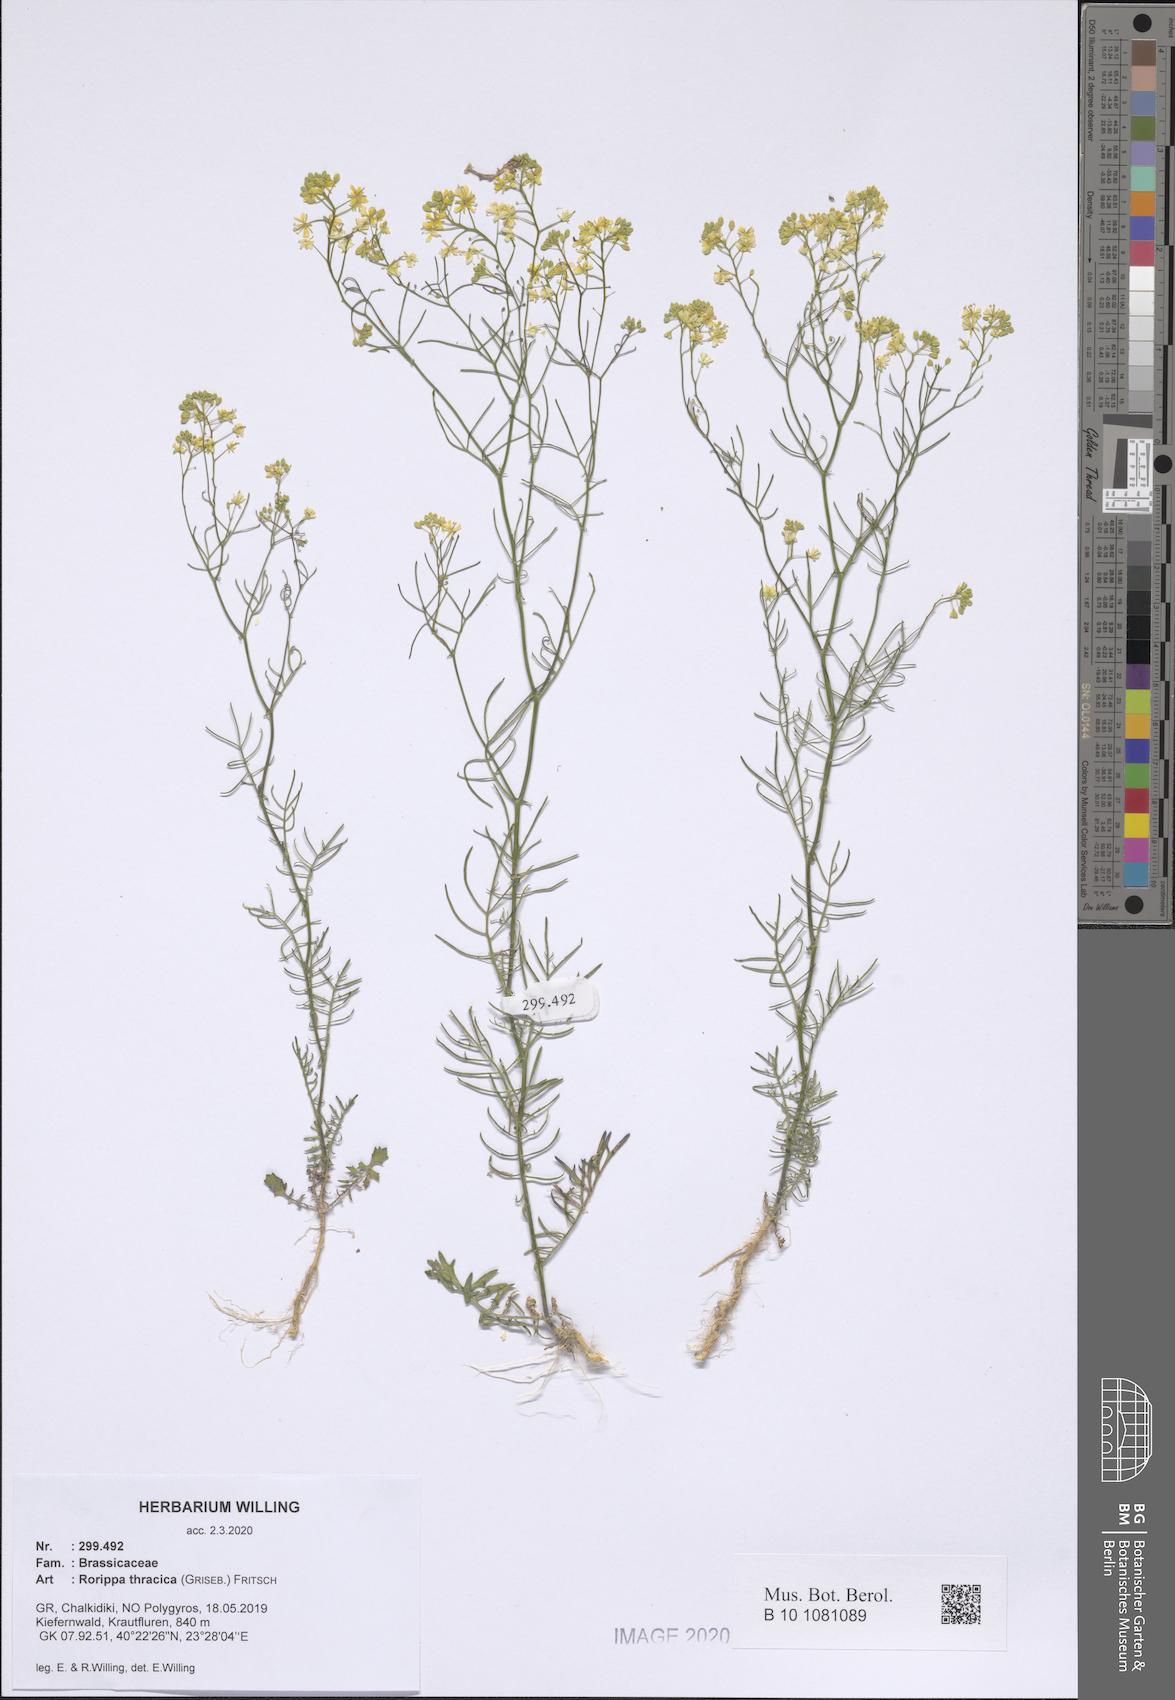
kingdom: Plantae
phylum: Tracheophyta
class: Magnoliopsida
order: Brassicales
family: Brassicaceae
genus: Rorippa
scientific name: Rorippa lippizensis
